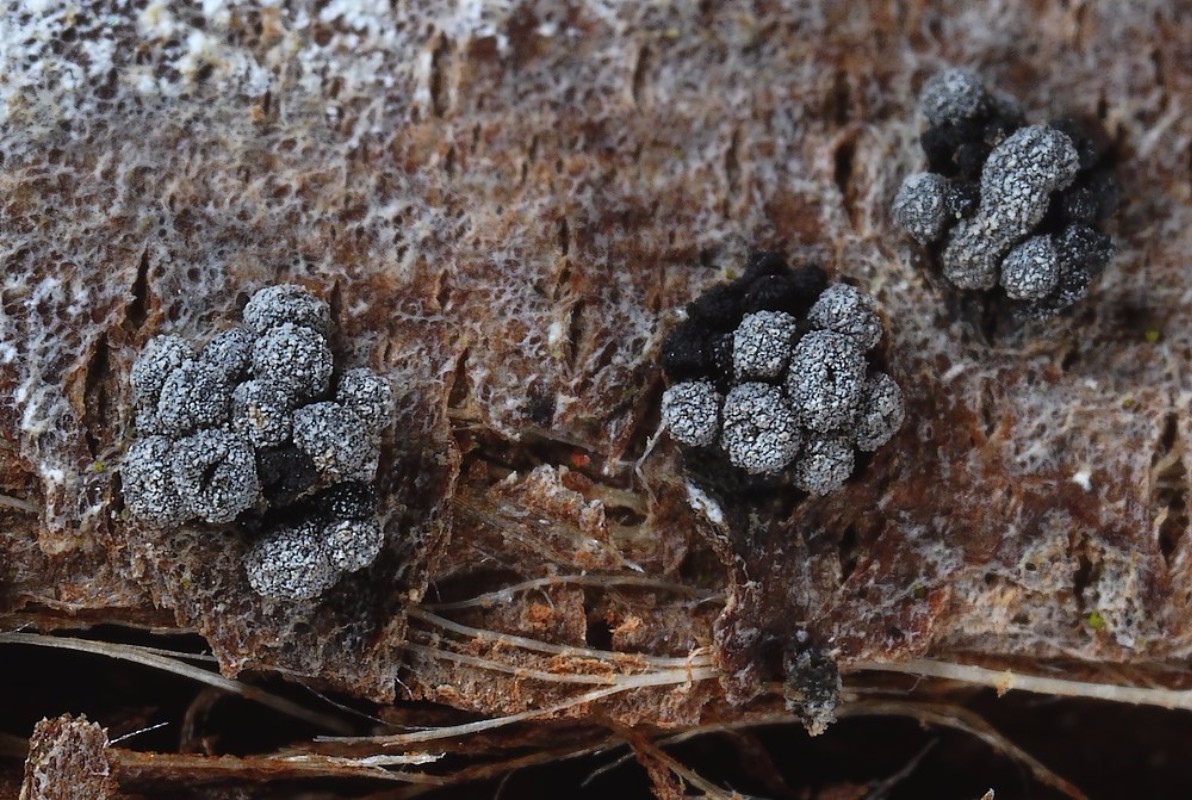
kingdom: Fungi
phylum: Ascomycota
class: Leotiomycetes
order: Leotiales
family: Tympanidaceae
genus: Tympanis
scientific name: Tympanis alnea
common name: almindelig knippeskive
